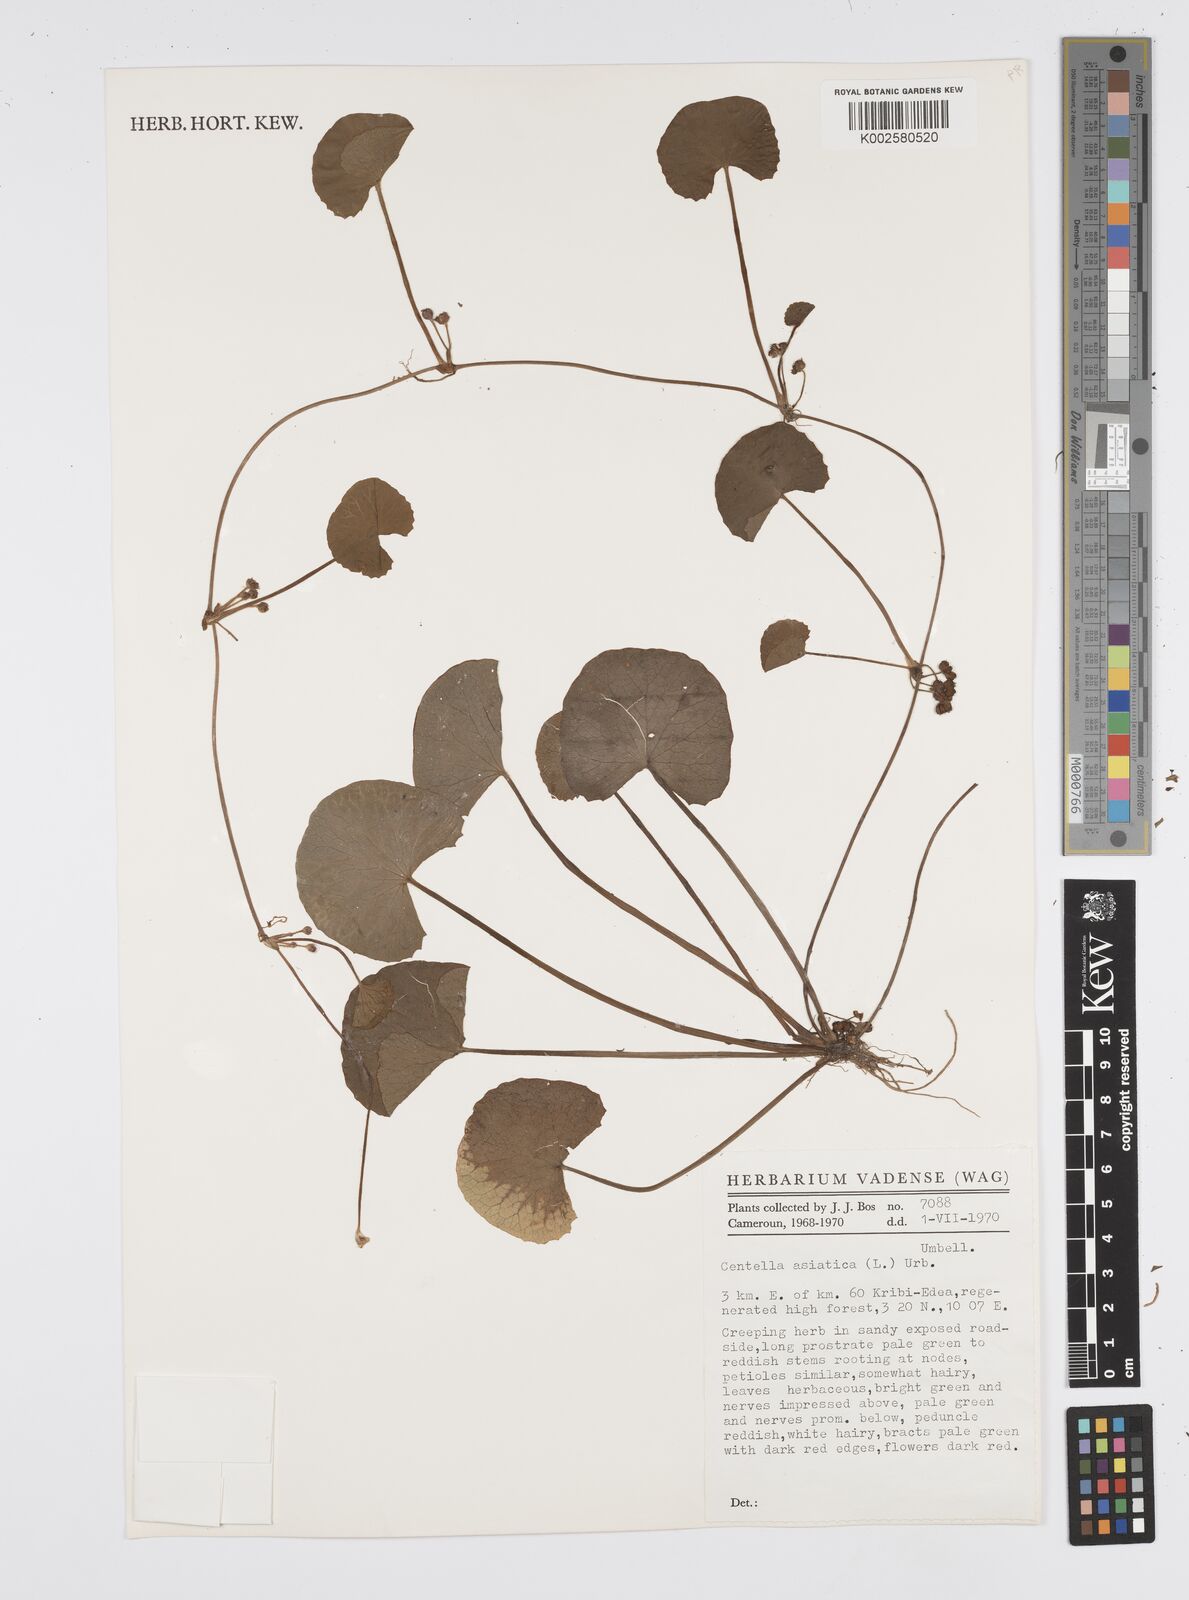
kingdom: Plantae
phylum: Tracheophyta
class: Magnoliopsida
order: Apiales
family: Apiaceae
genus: Centella
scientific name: Centella asiatica
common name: Spadeleaf
